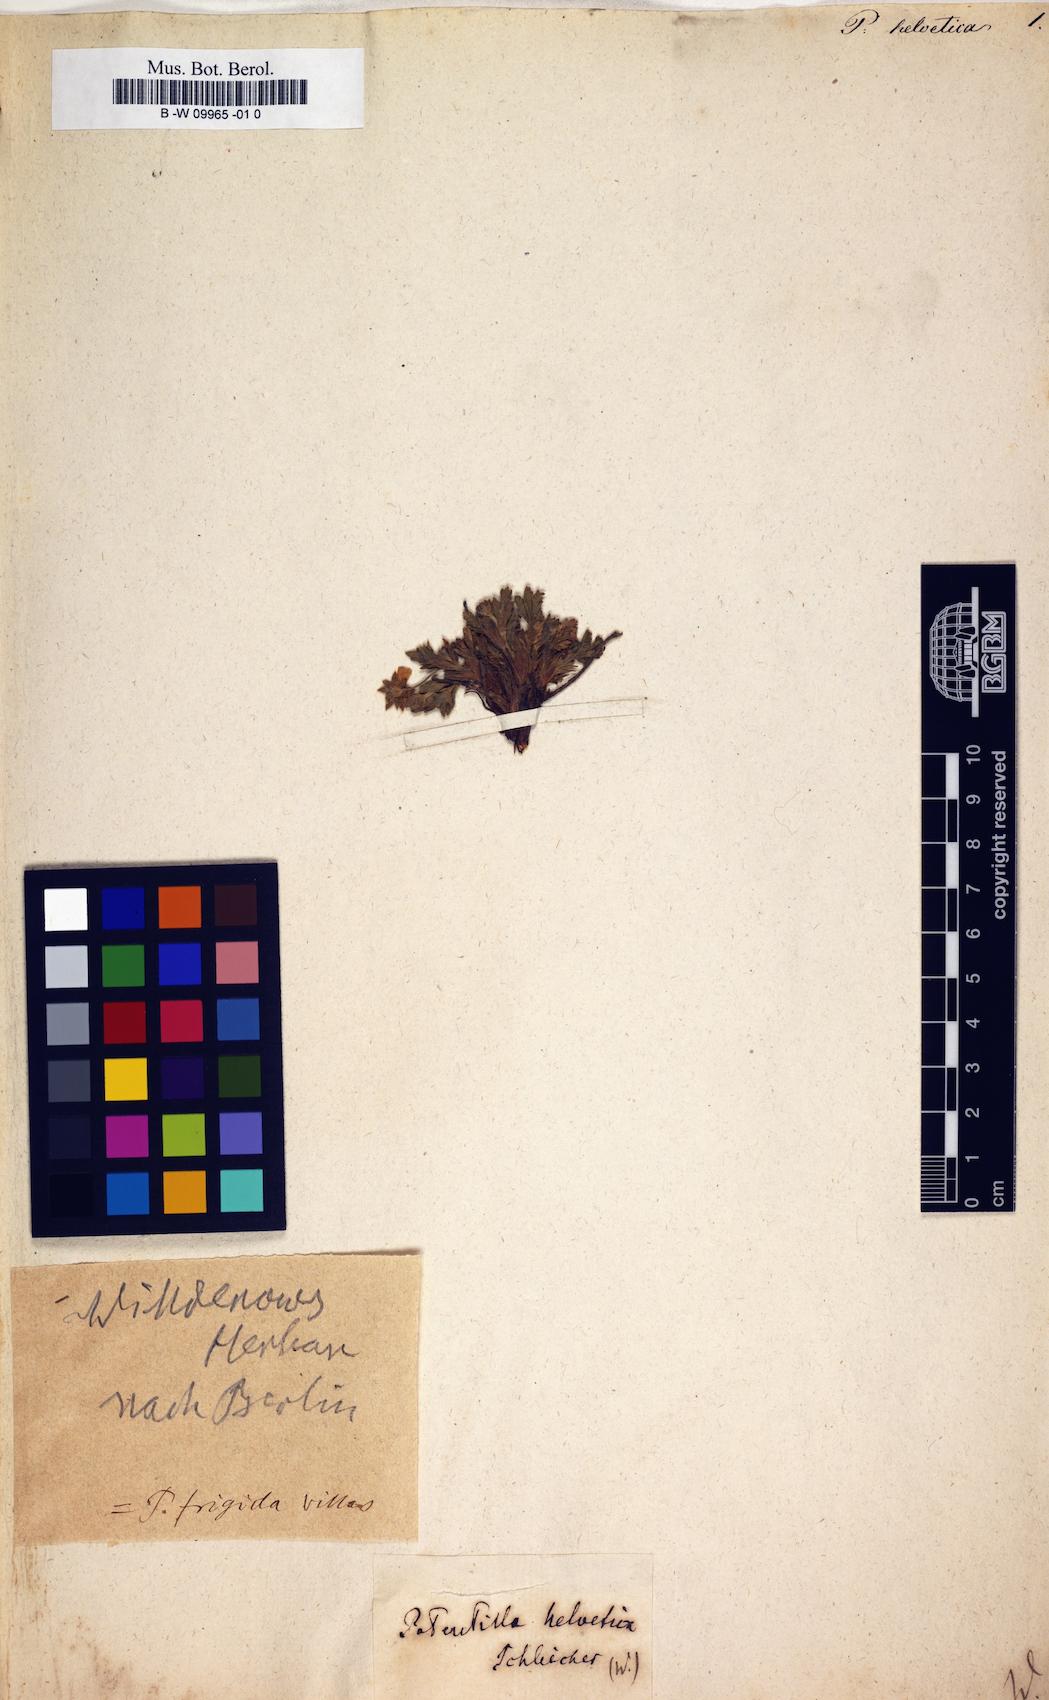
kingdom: Plantae
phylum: Tracheophyta
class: Magnoliopsida
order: Rosales
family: Rosaceae
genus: Potentilla
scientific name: Potentilla
